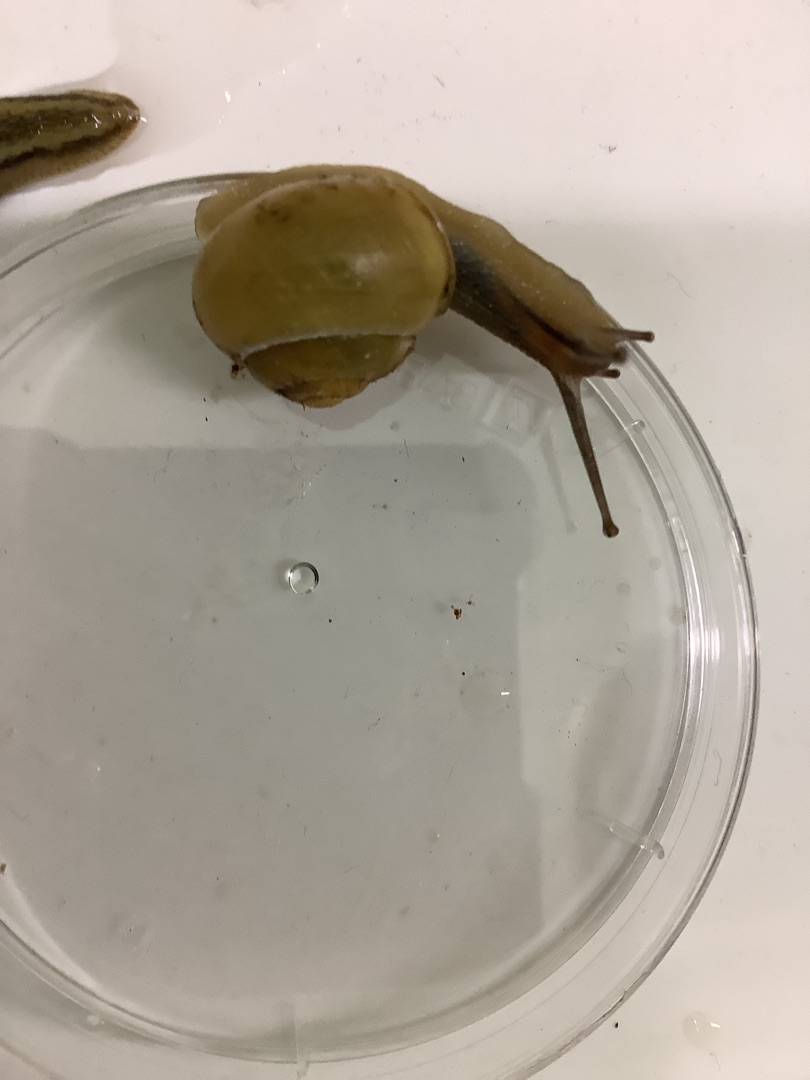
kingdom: Animalia
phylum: Mollusca
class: Gastropoda
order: Stylommatophora
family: Helicidae
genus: Cepaea
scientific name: Cepaea hortensis
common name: Havesnegl
